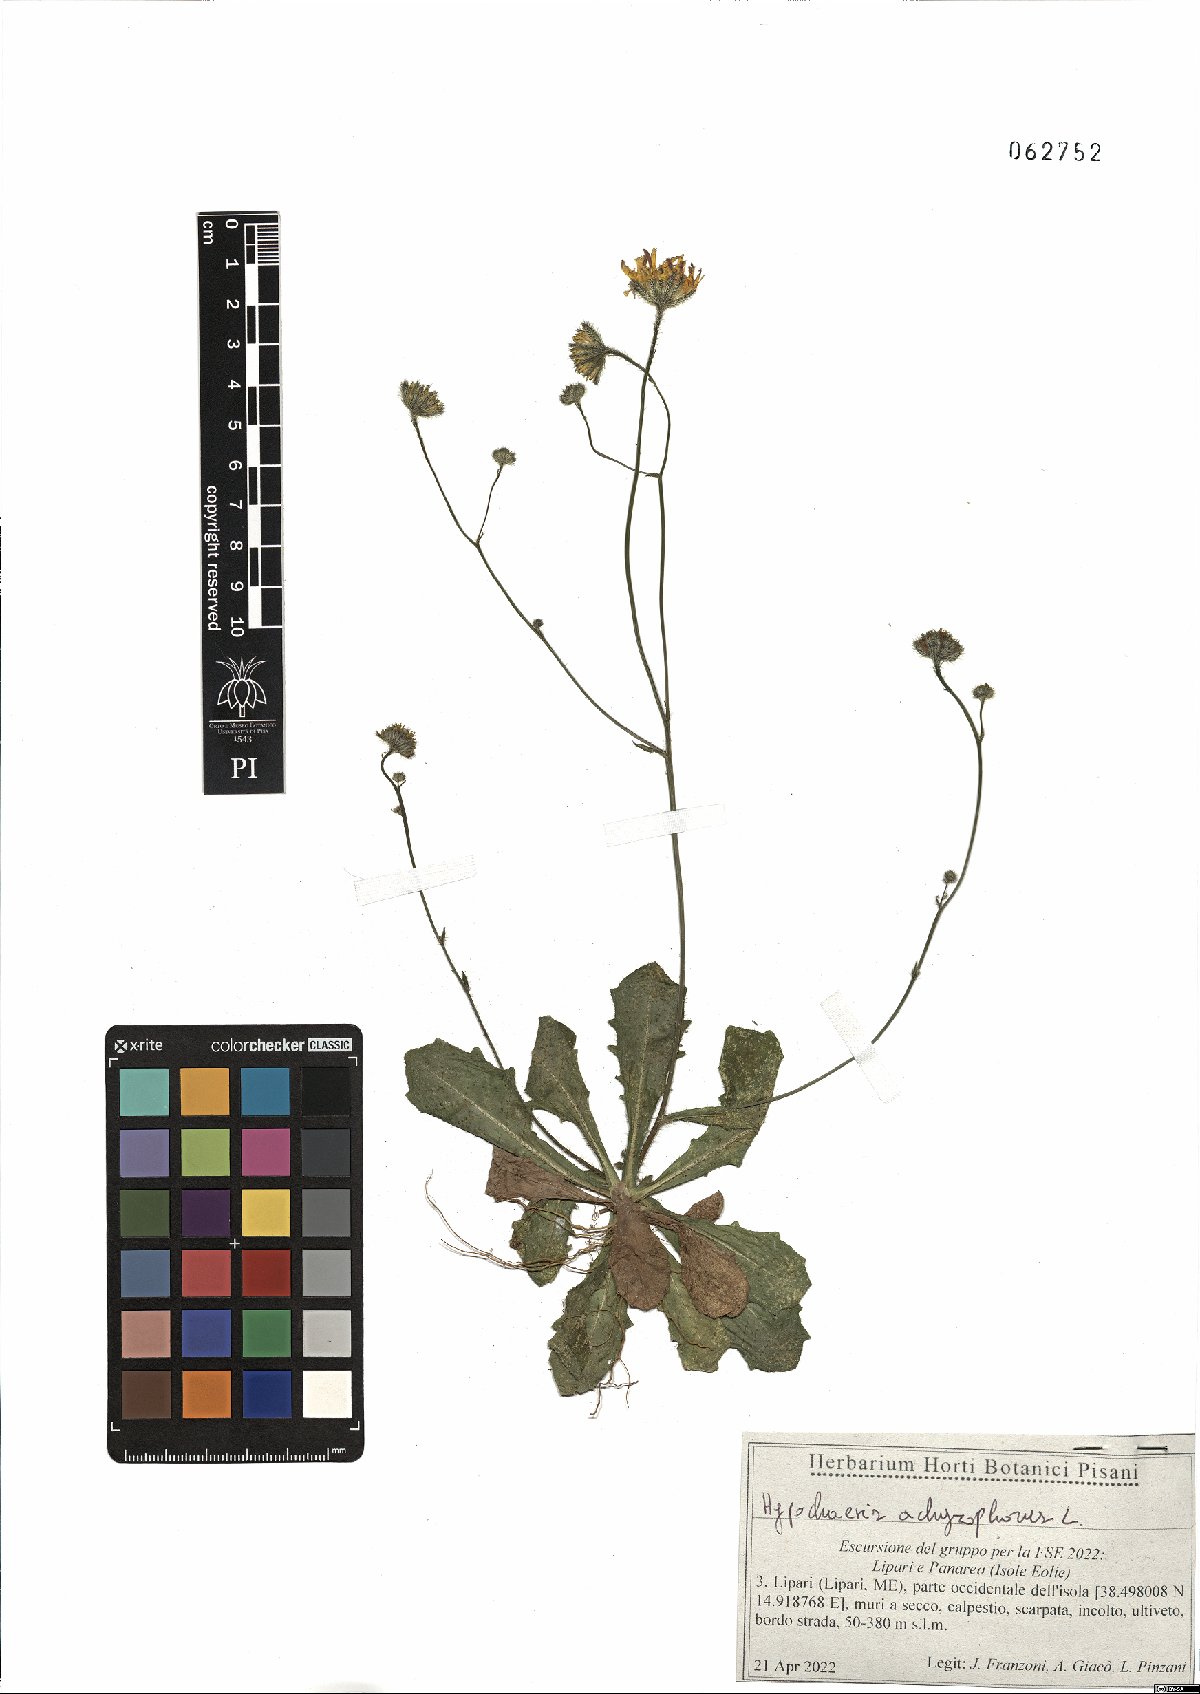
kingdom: Plantae
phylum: Tracheophyta
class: Magnoliopsida
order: Asterales
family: Asteraceae
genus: Achyrophorus
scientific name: Achyrophorus valdesii
